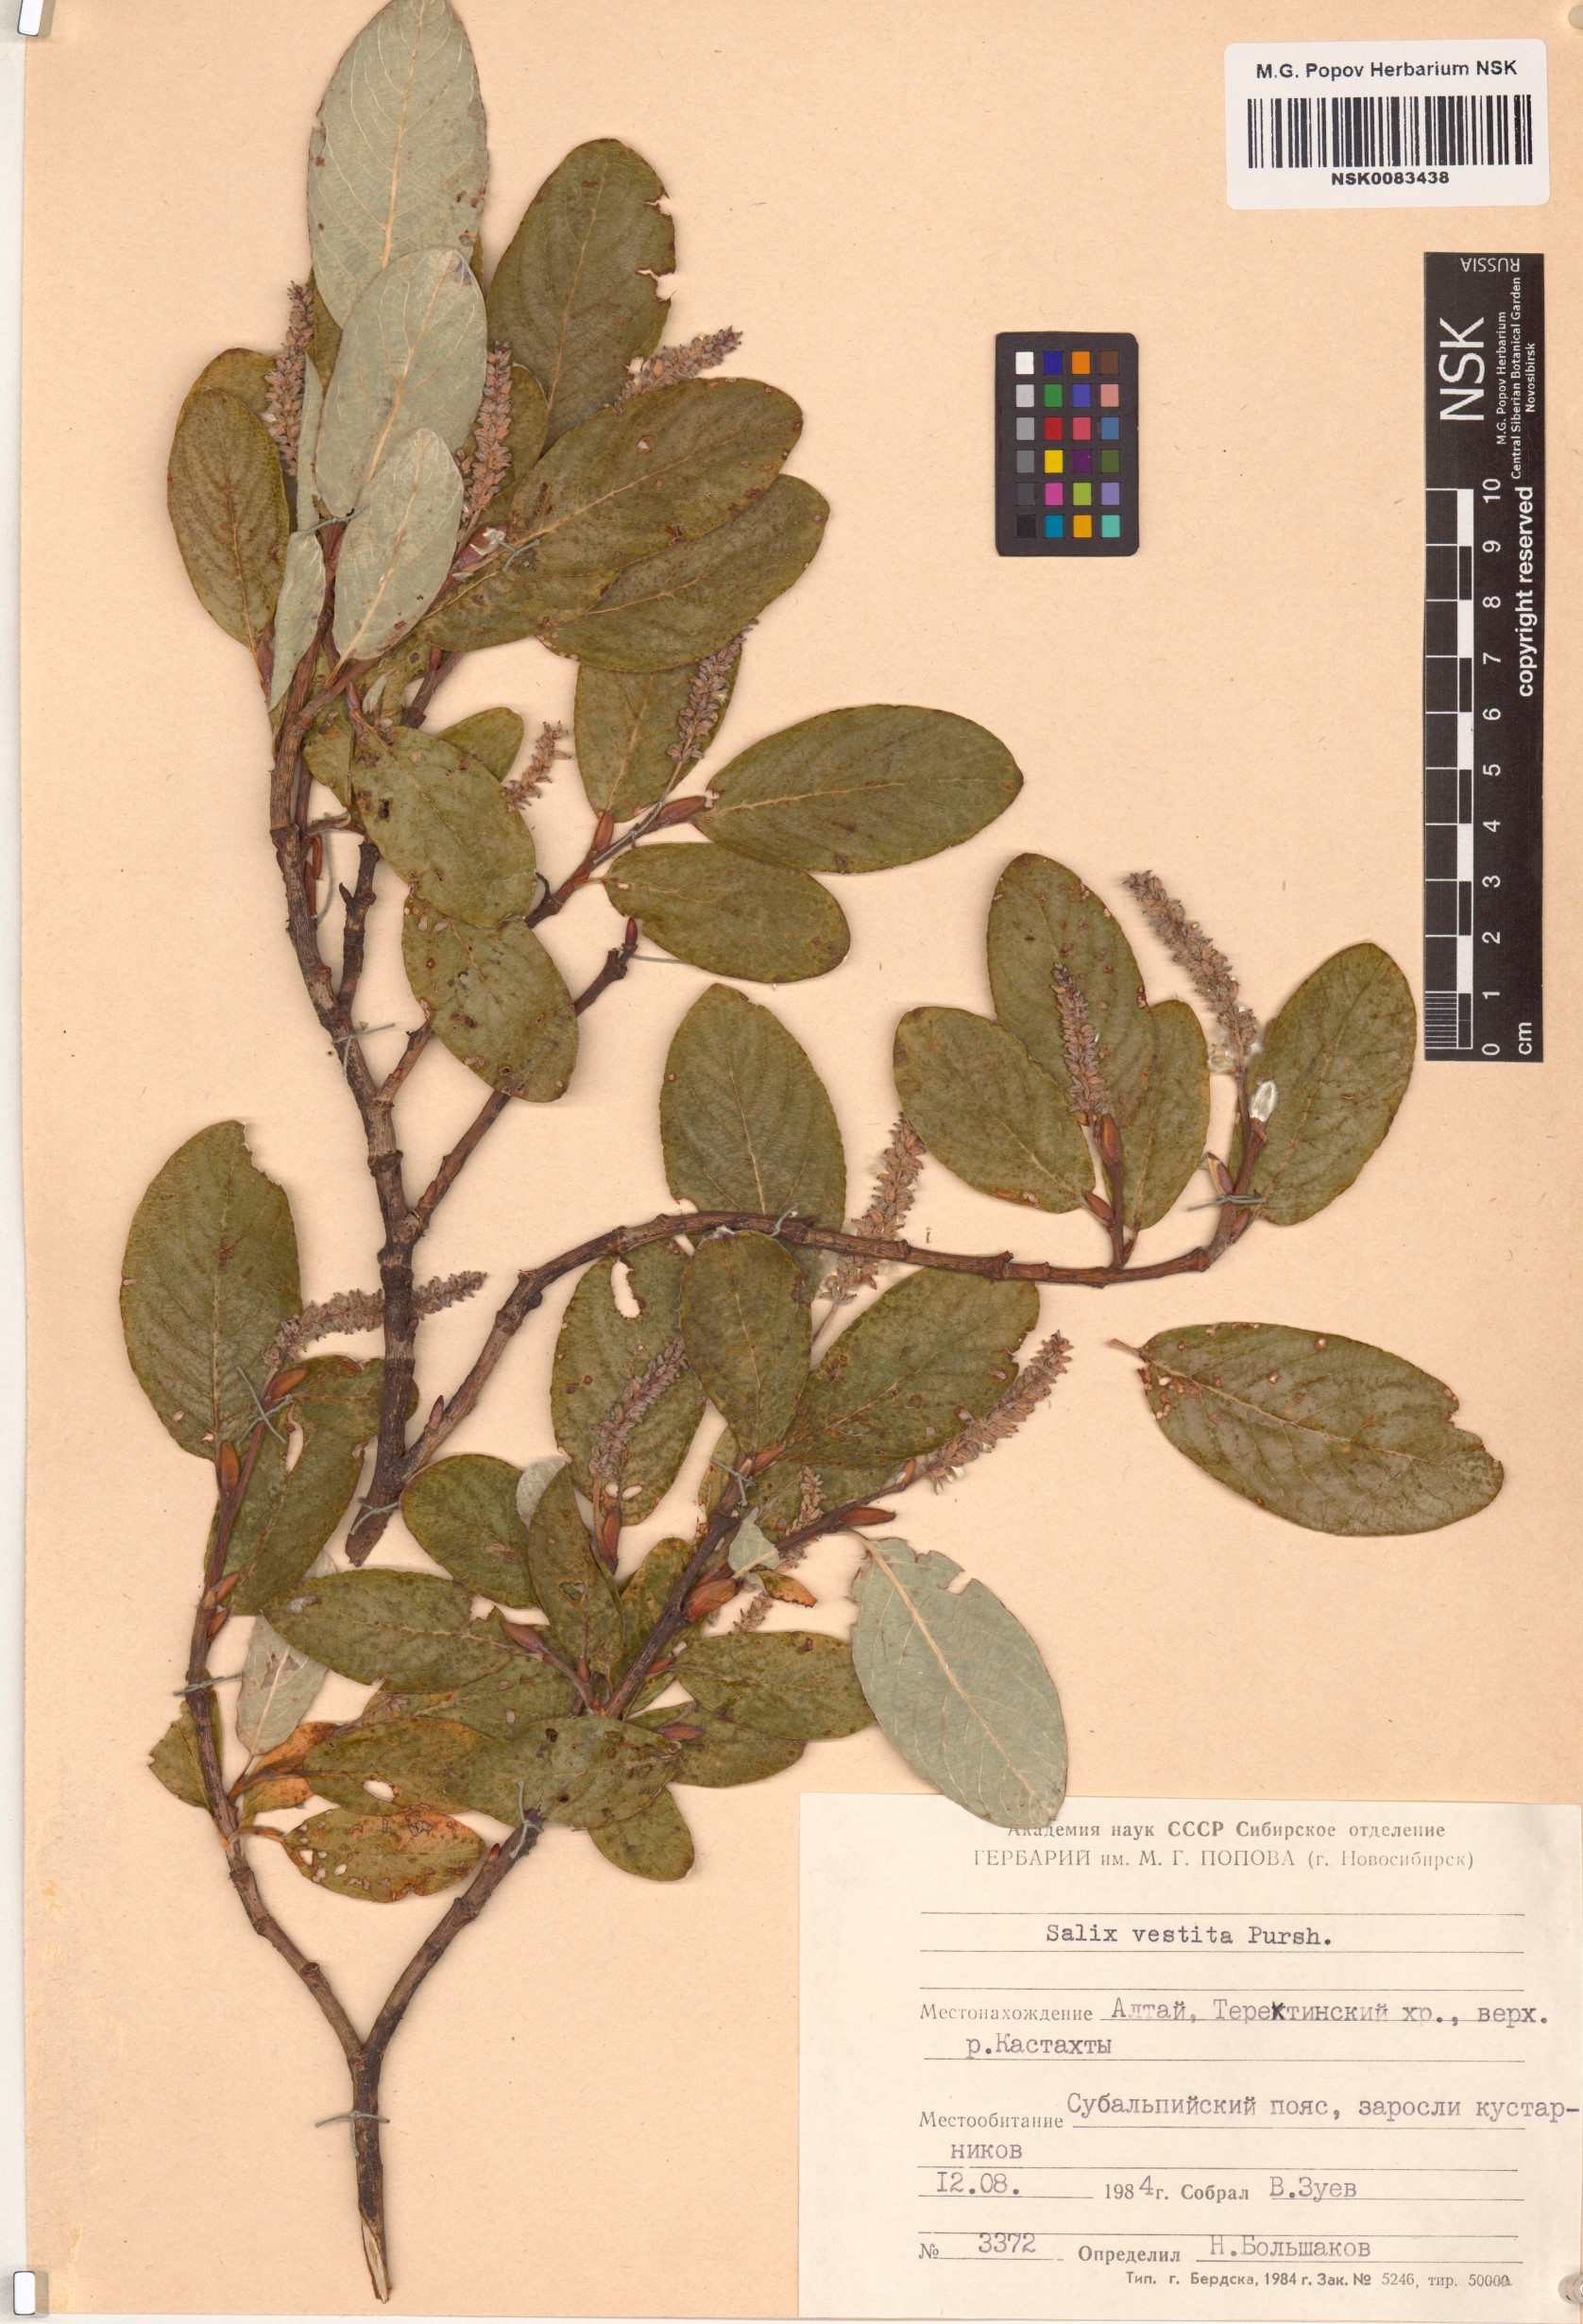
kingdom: Plantae
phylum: Tracheophyta
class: Magnoliopsida
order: Malpighiales
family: Salicaceae
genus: Salix
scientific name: Salix vestita
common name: Hairy willow
